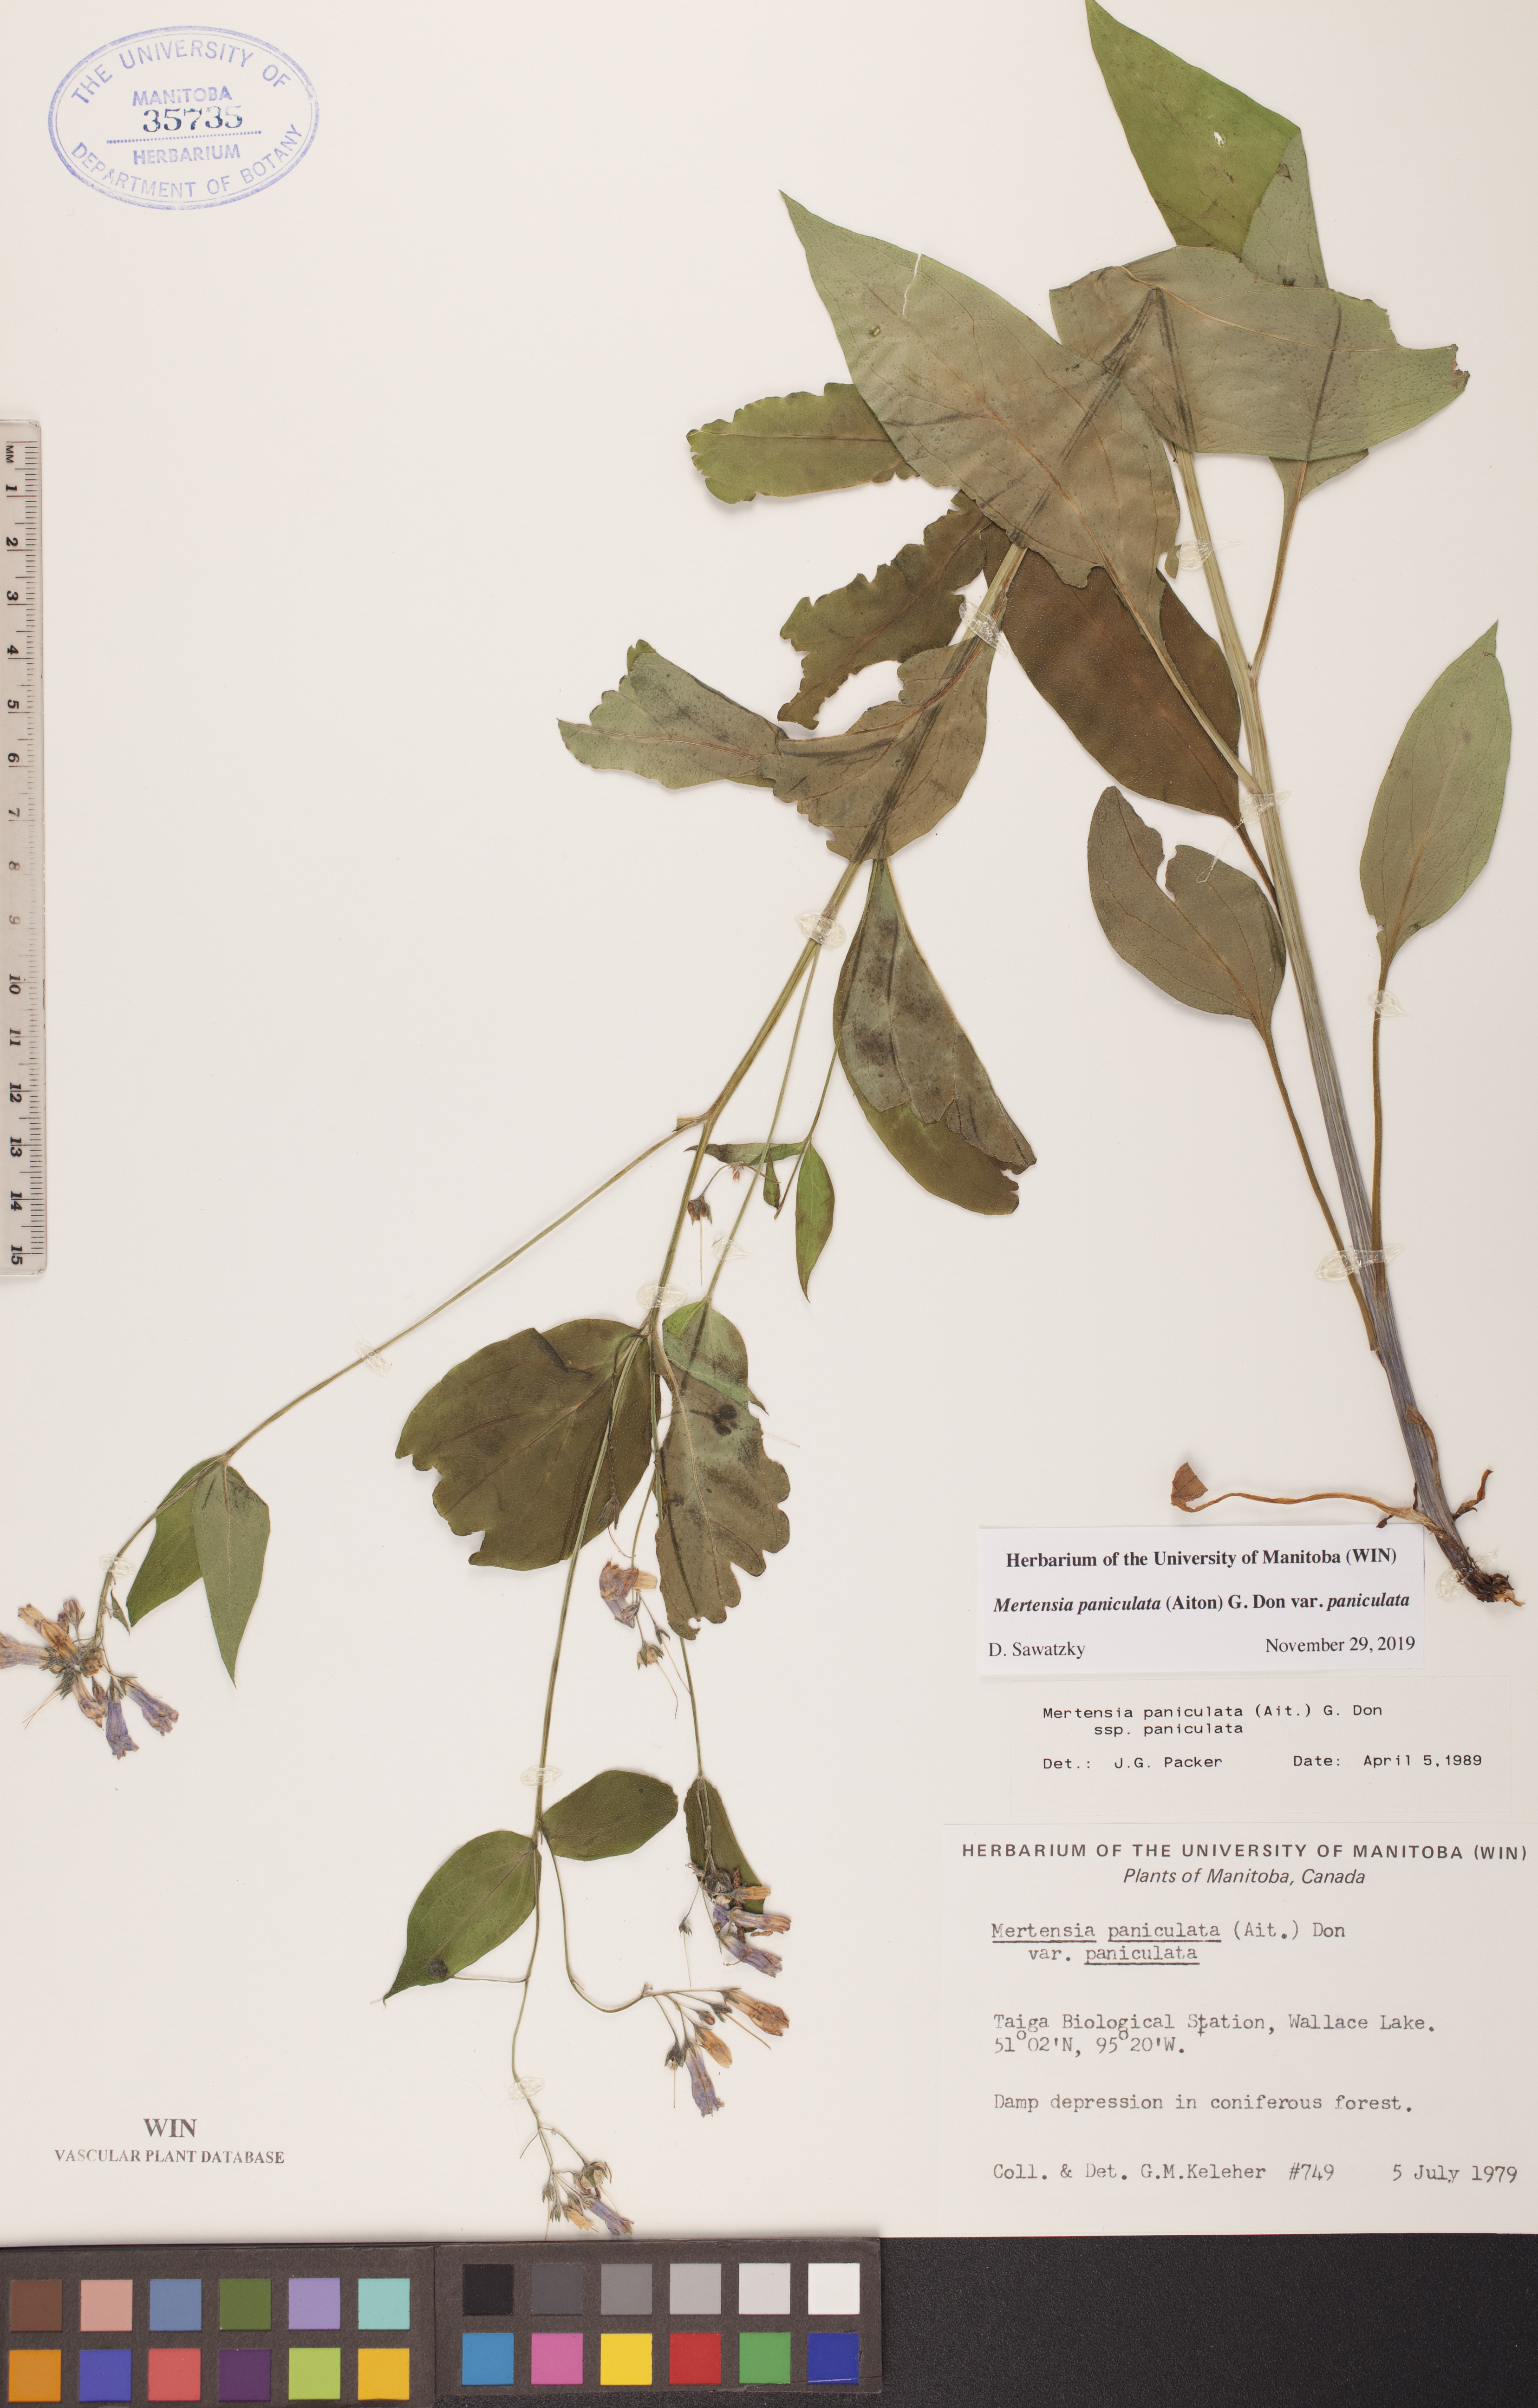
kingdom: Plantae
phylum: Tracheophyta
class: Magnoliopsida
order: Boraginales
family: Boraginaceae
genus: Mertensia
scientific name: Mertensia paniculata
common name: Panicled bluebells
